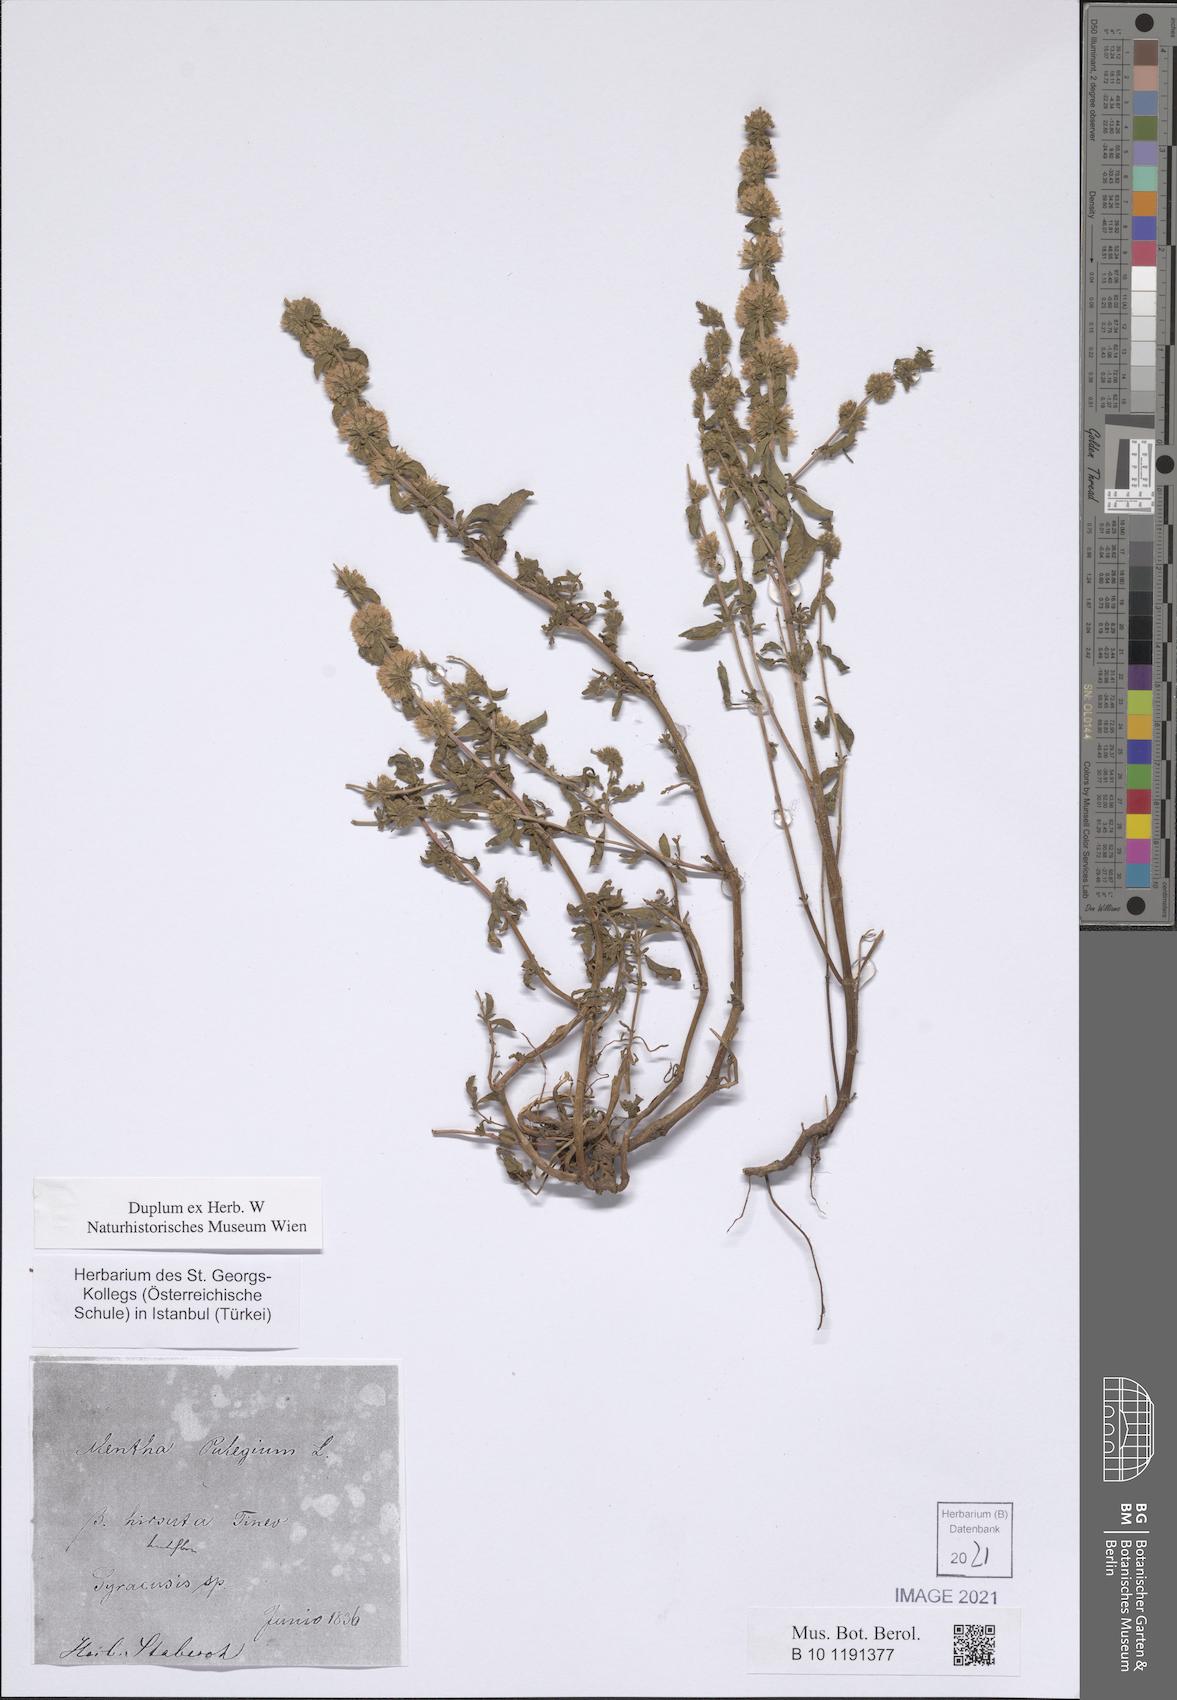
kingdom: Plantae
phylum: Tracheophyta
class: Magnoliopsida
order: Lamiales
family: Lamiaceae
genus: Mentha
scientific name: Mentha pulegium
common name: Pennyroyal
